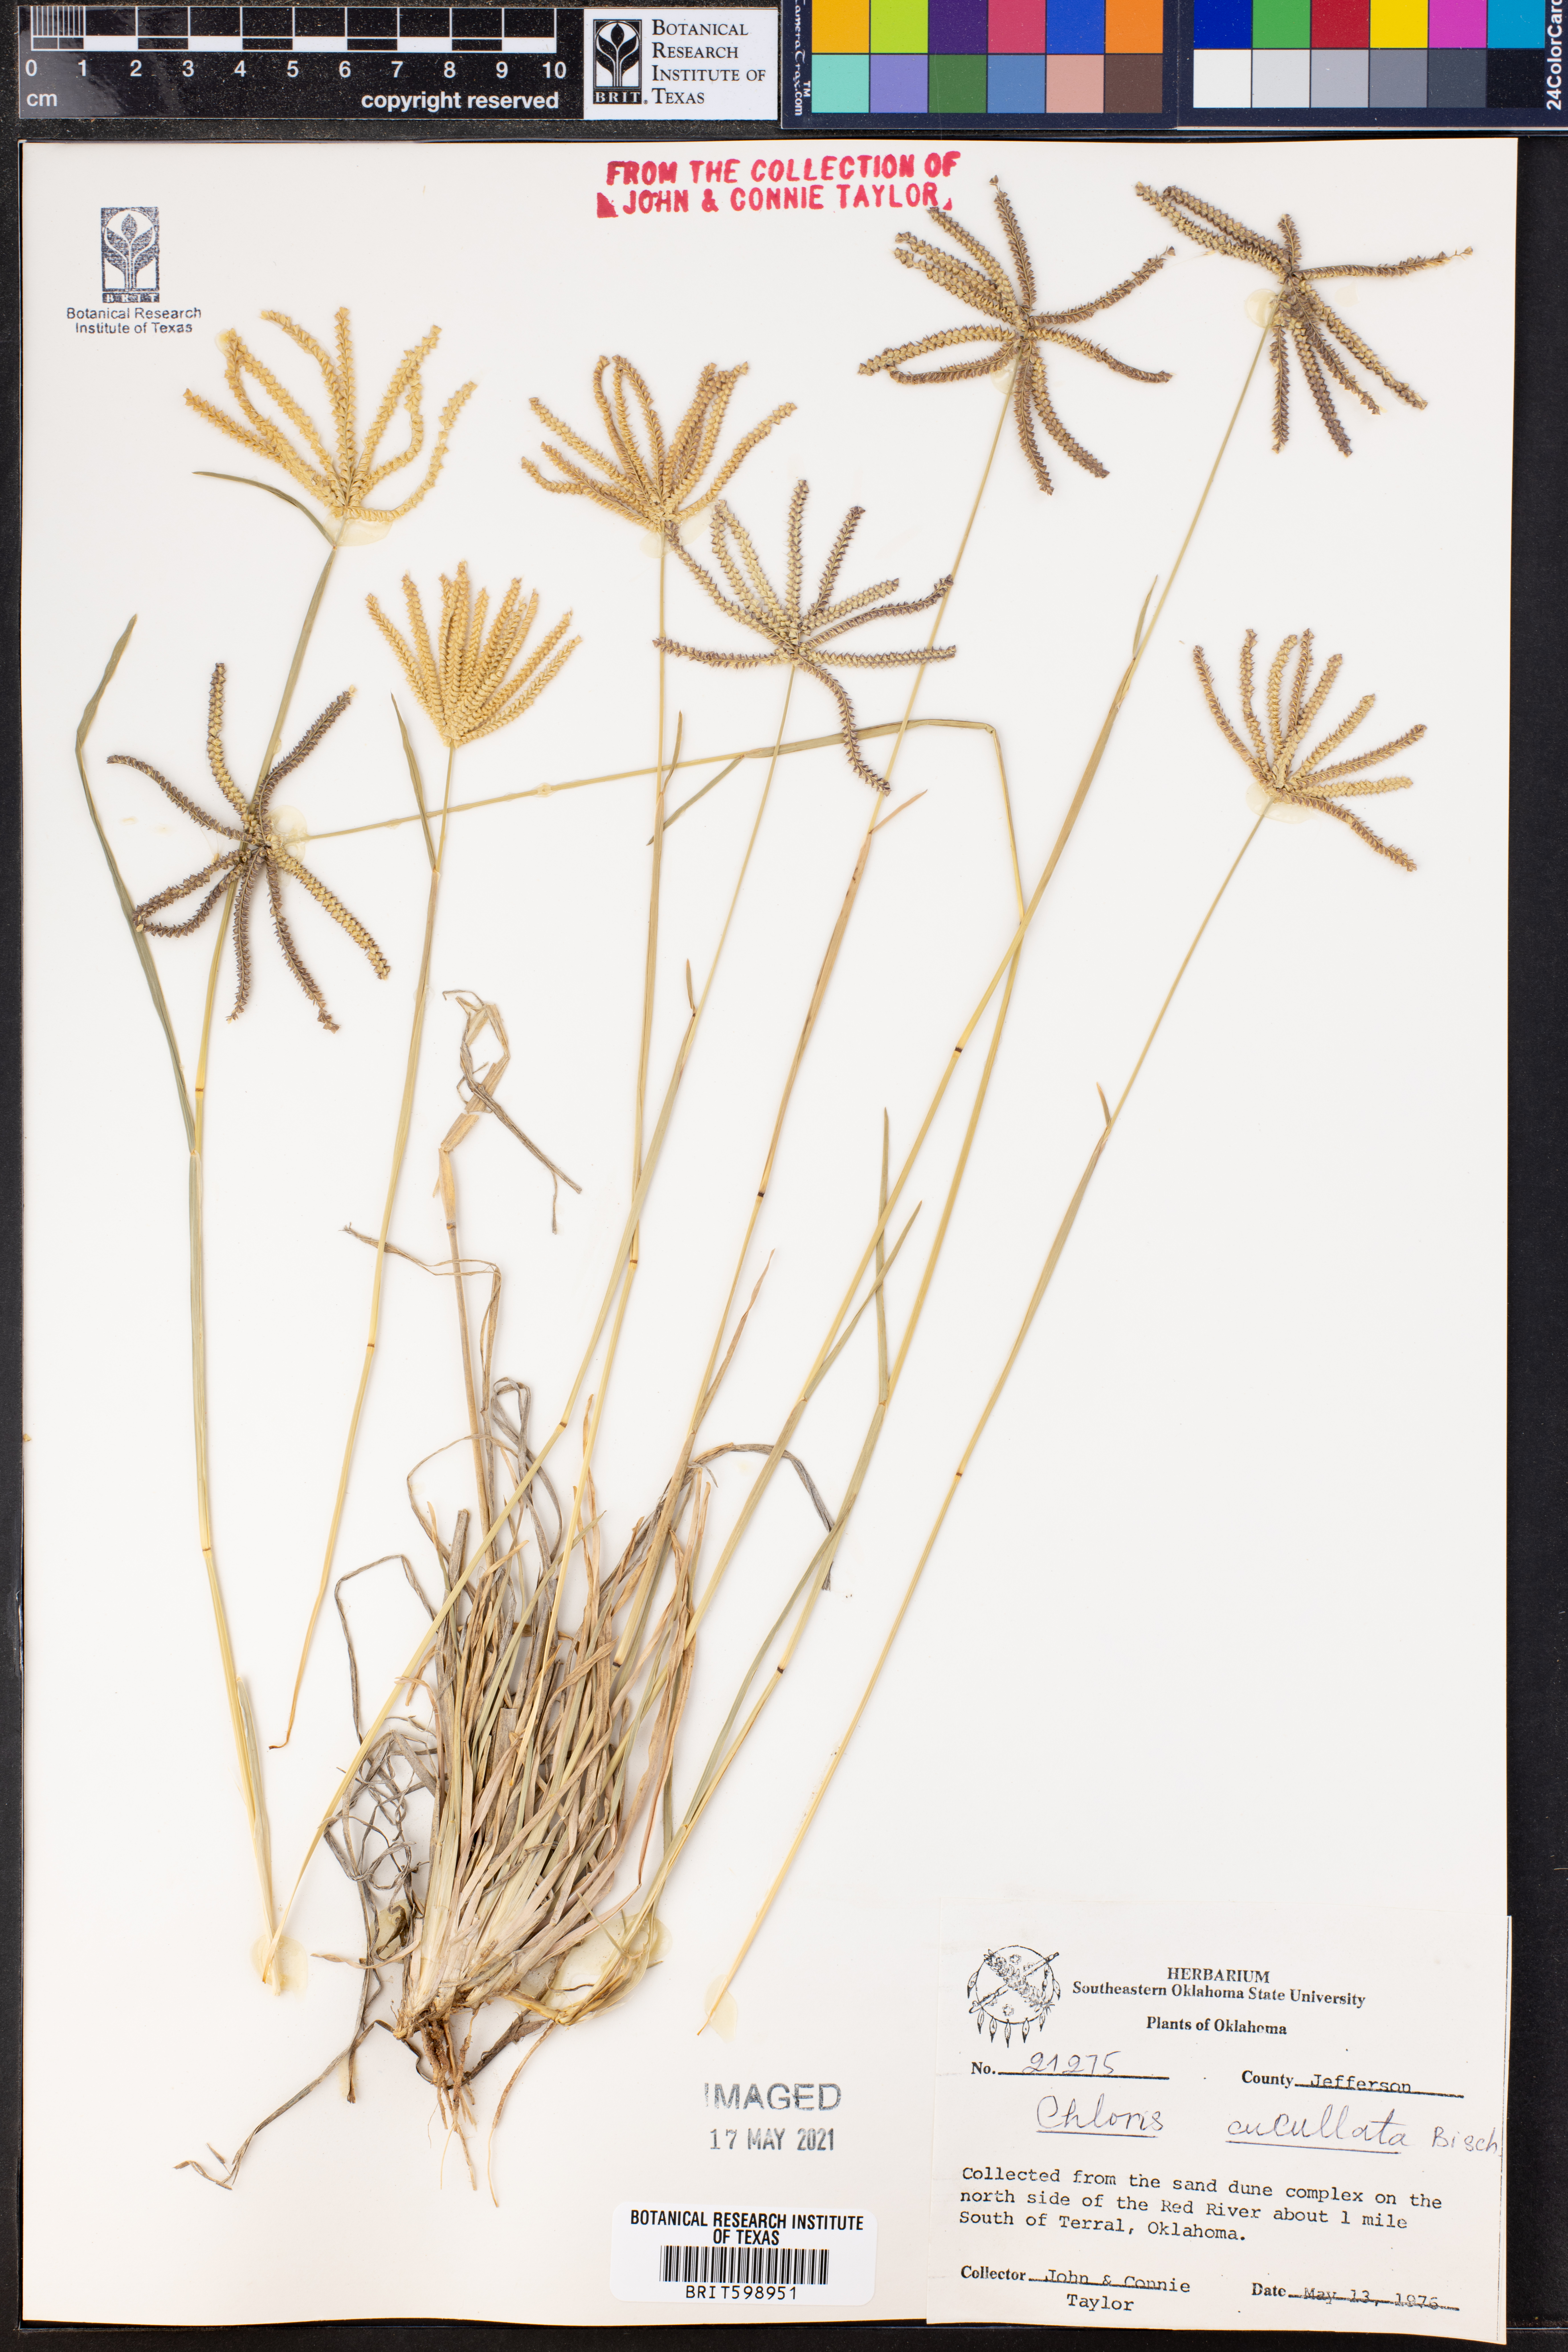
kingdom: Plantae
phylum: Tracheophyta
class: Liliopsida
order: Poales
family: Poaceae
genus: Chloris
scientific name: Chloris cucullata
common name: Hooded windmill grass
